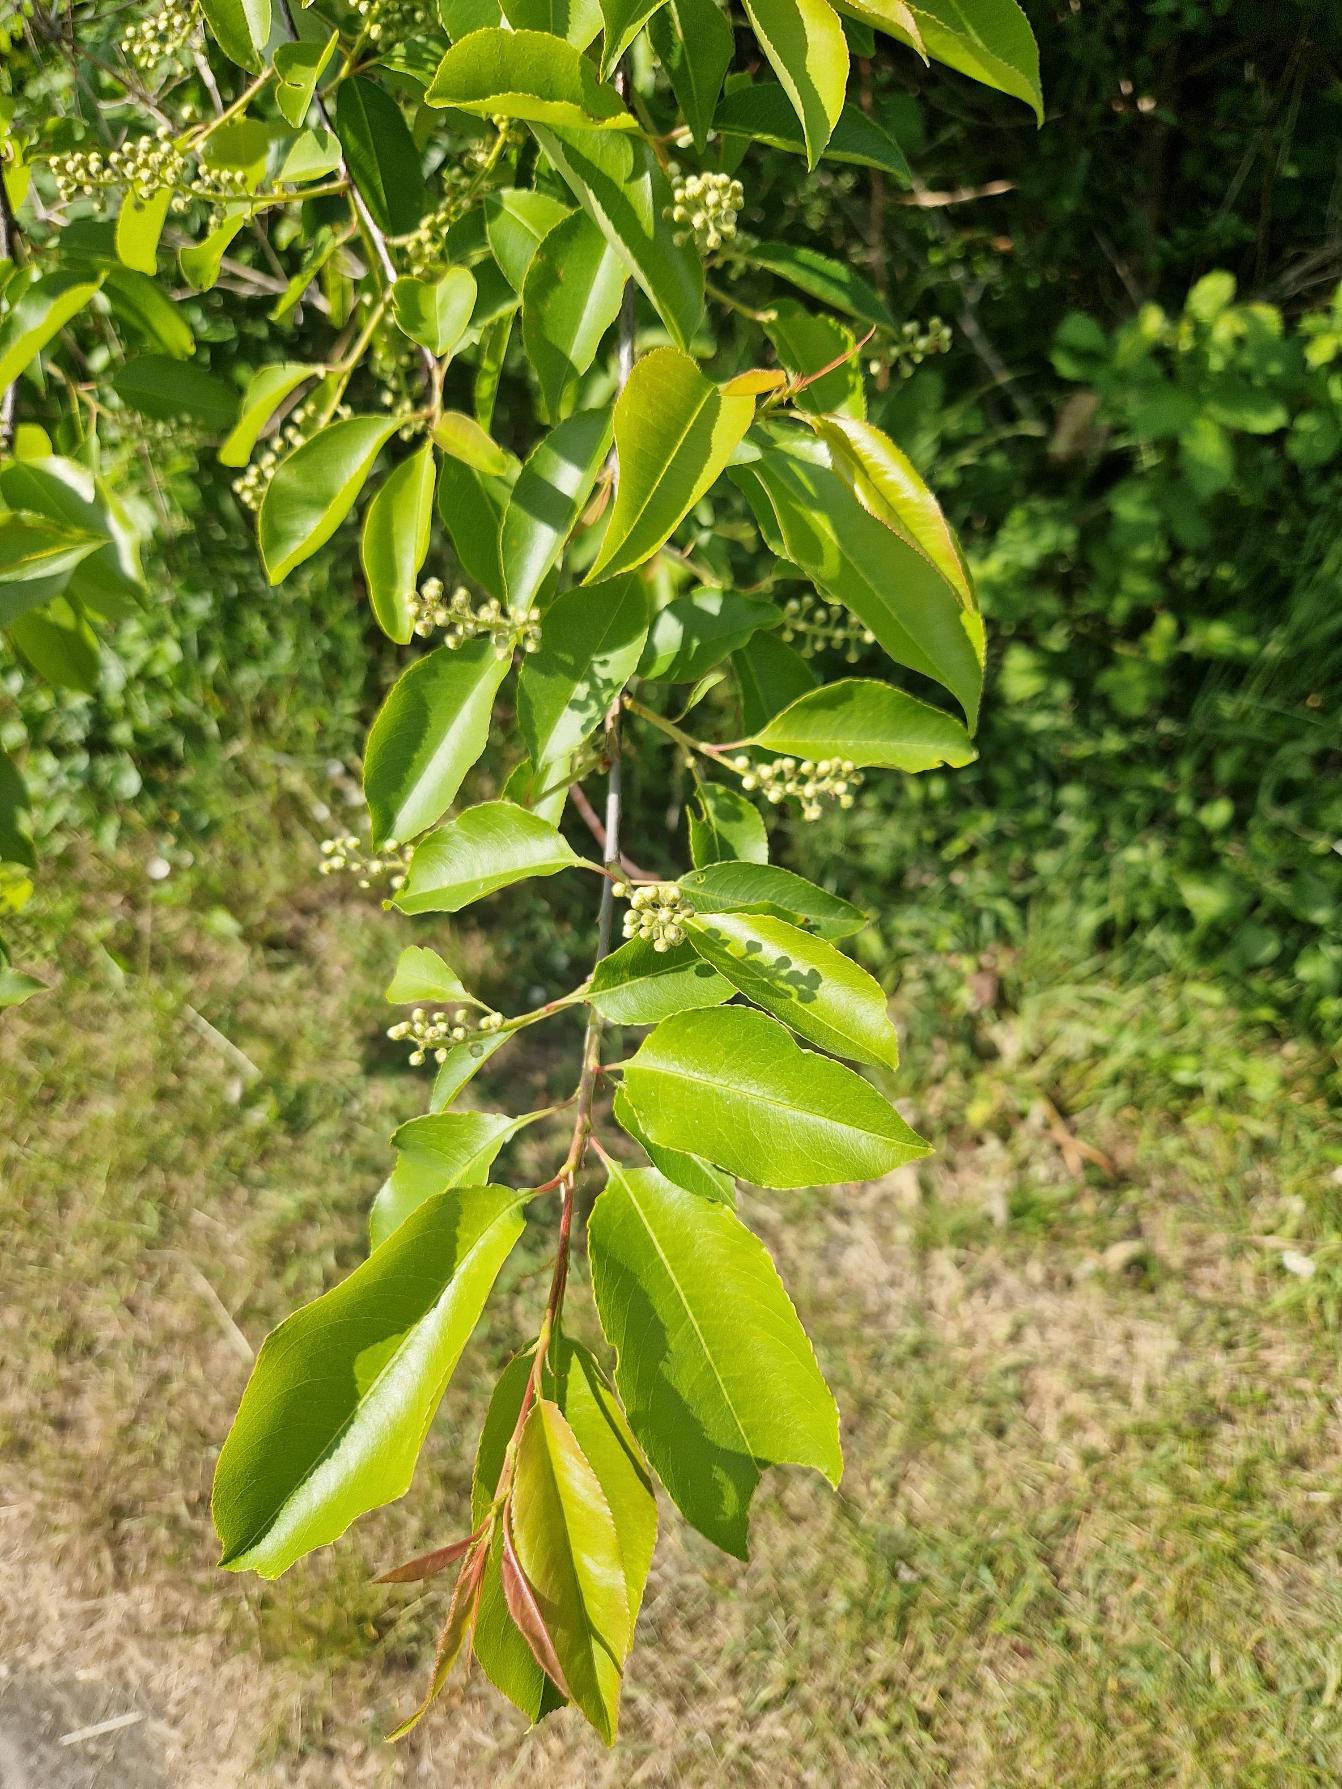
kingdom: Plantae
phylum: Tracheophyta
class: Magnoliopsida
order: Rosales
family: Rosaceae
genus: Prunus
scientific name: Prunus serotina
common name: Glansbladet hæg
